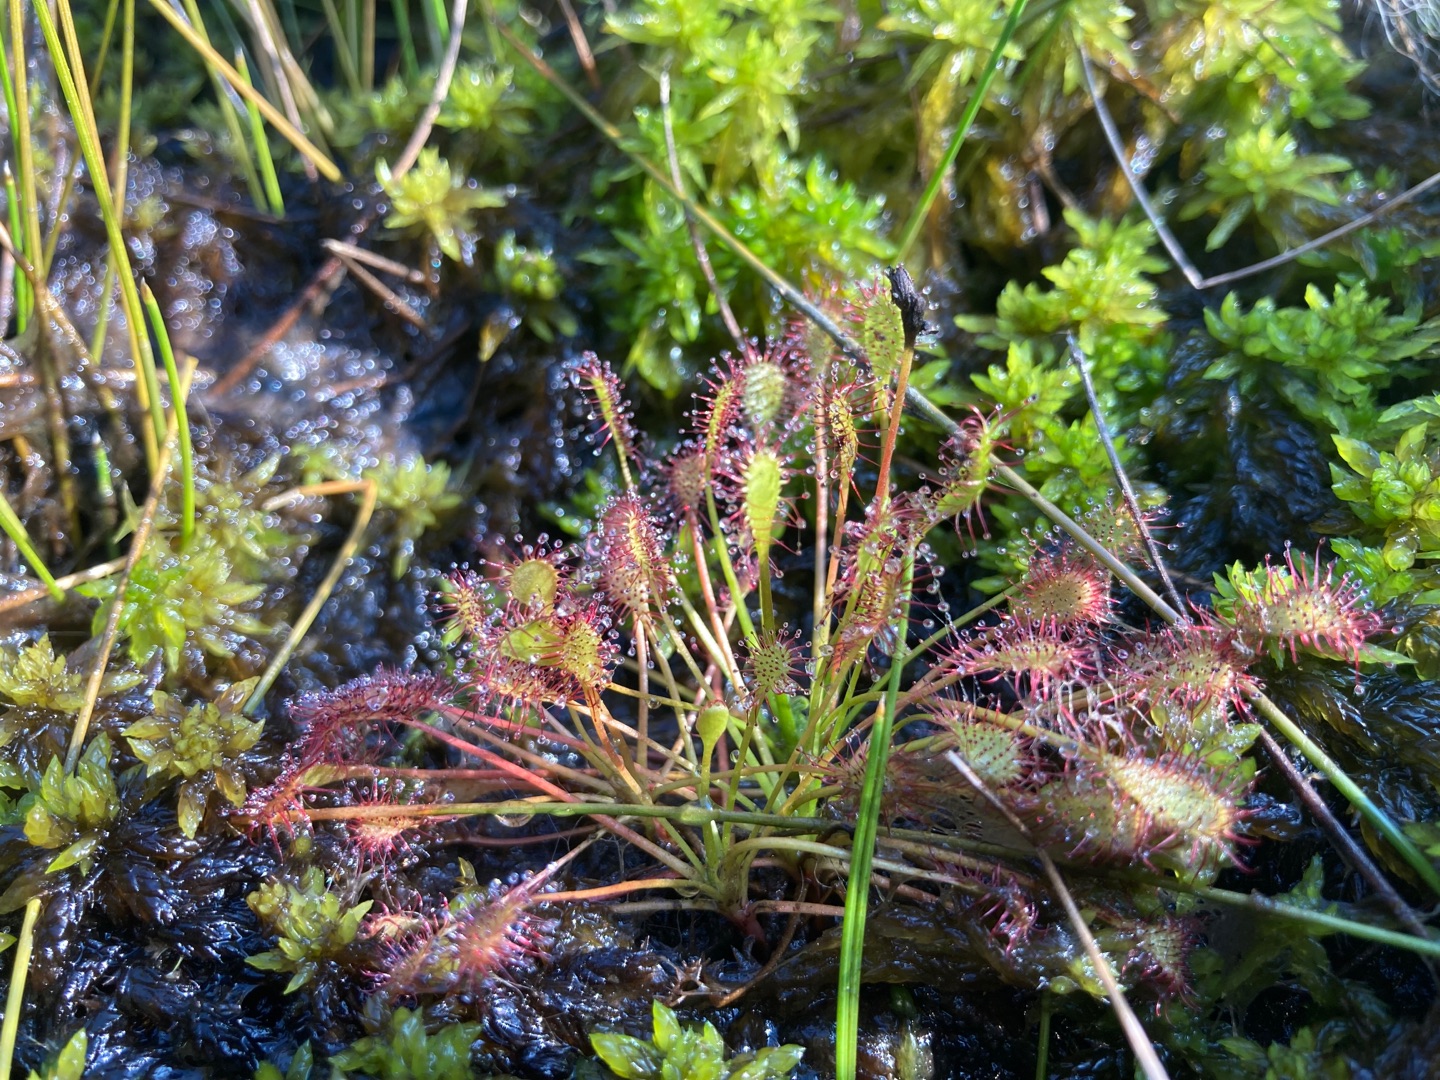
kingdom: Plantae
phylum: Tracheophyta
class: Magnoliopsida
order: Caryophyllales
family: Droseraceae
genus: Drosera
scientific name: Drosera intermedia
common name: Liden soldug
